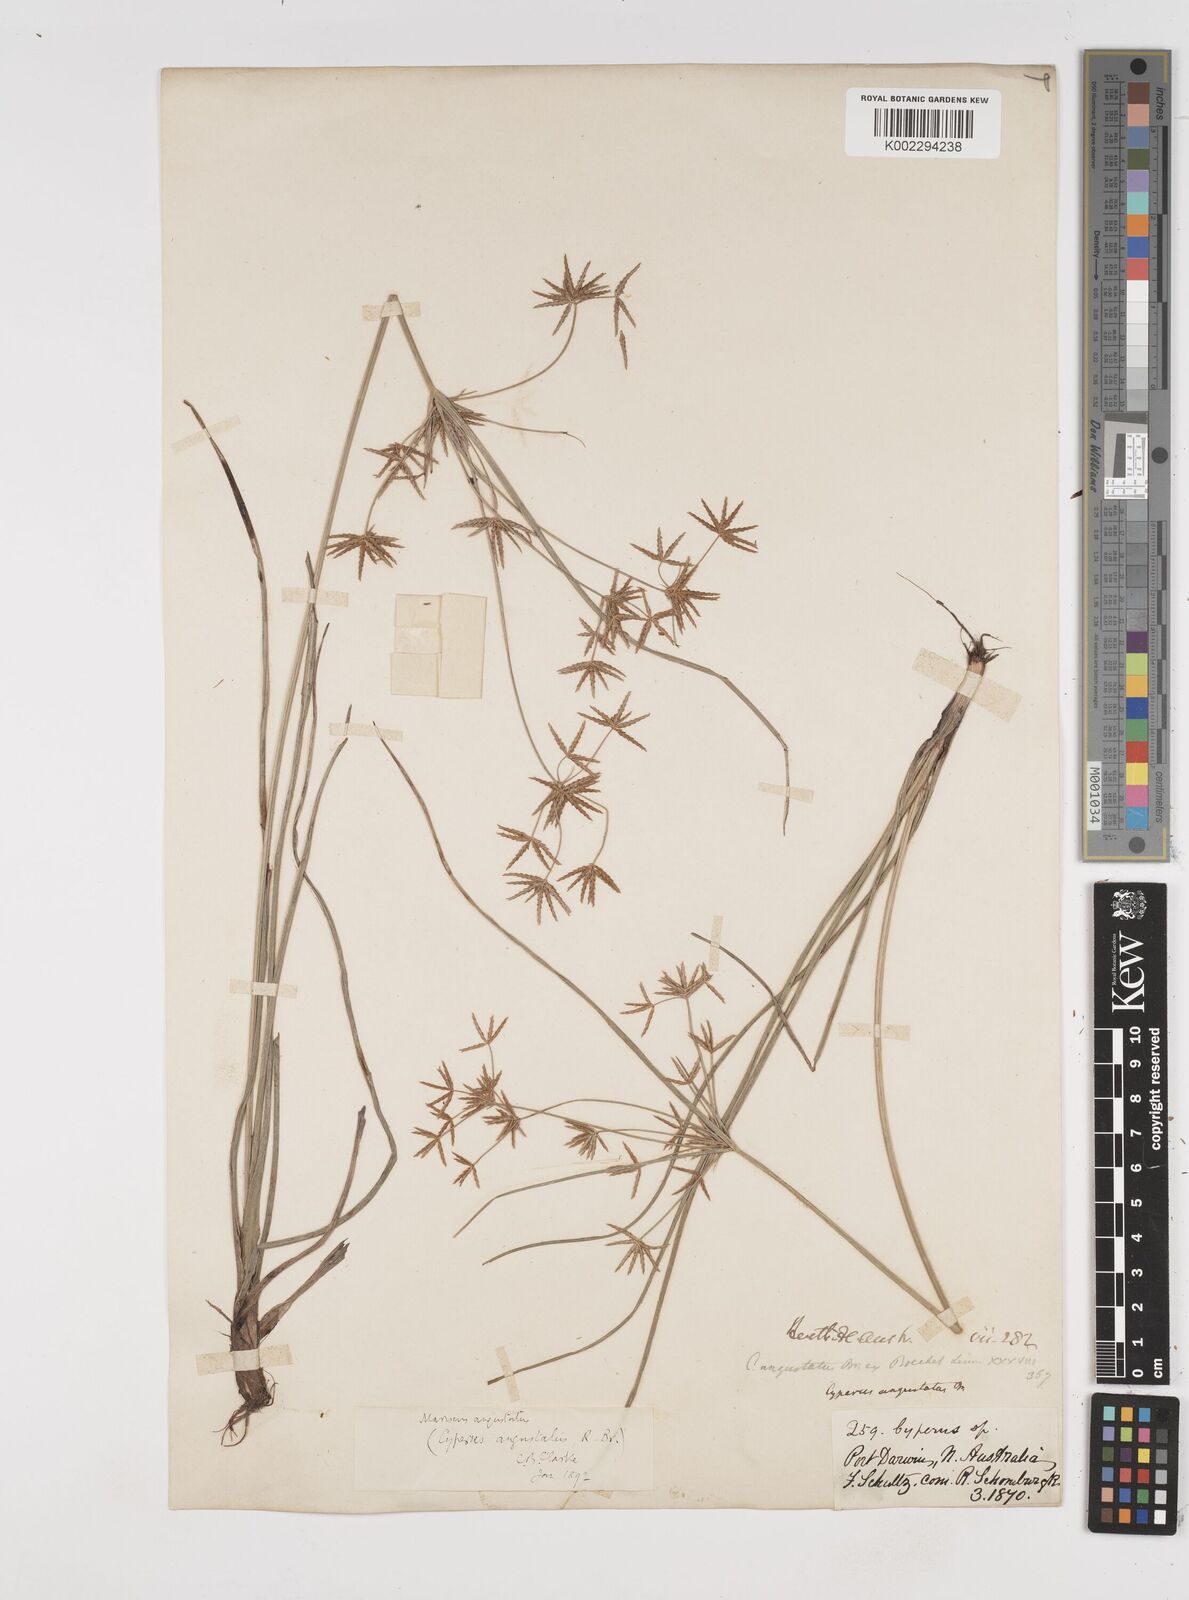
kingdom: Plantae
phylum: Tracheophyta
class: Liliopsida
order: Poales
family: Cyperaceae
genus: Cyperus
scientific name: Cyperus angustatus
